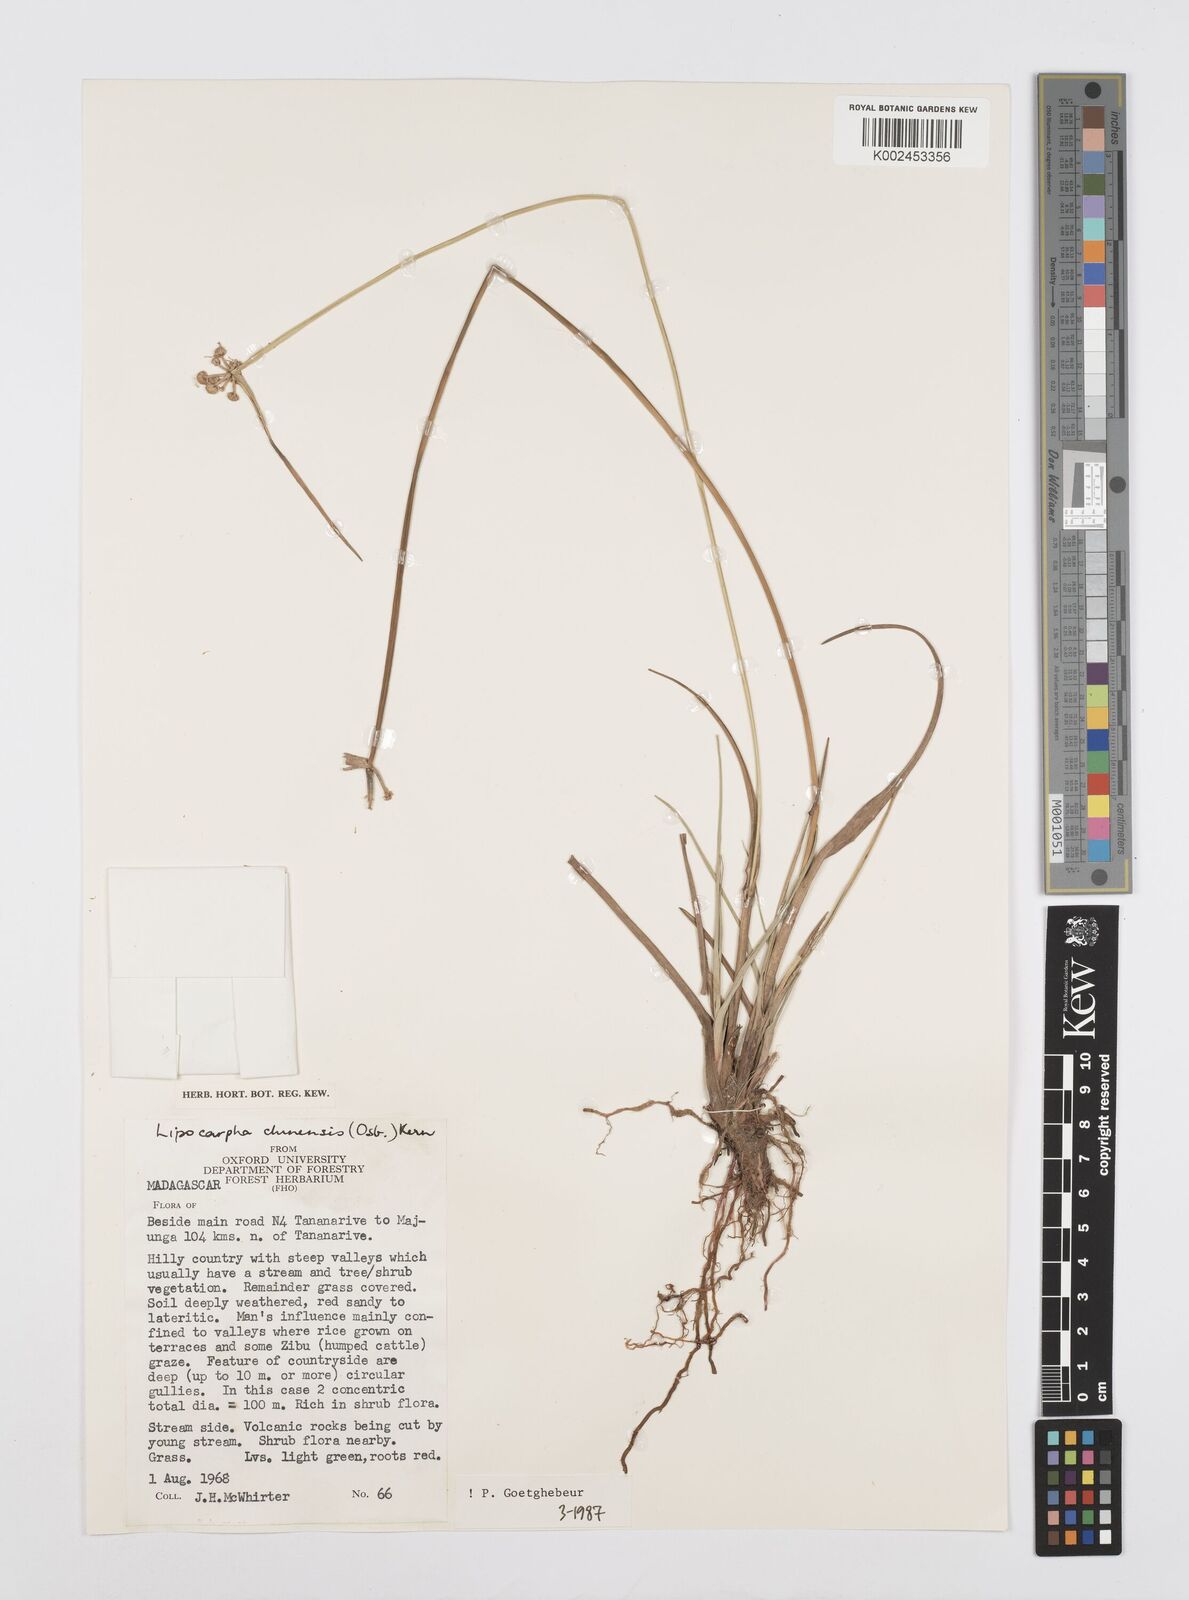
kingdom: Plantae
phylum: Tracheophyta
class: Liliopsida
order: Poales
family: Cyperaceae
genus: Cyperus
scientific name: Cyperus
